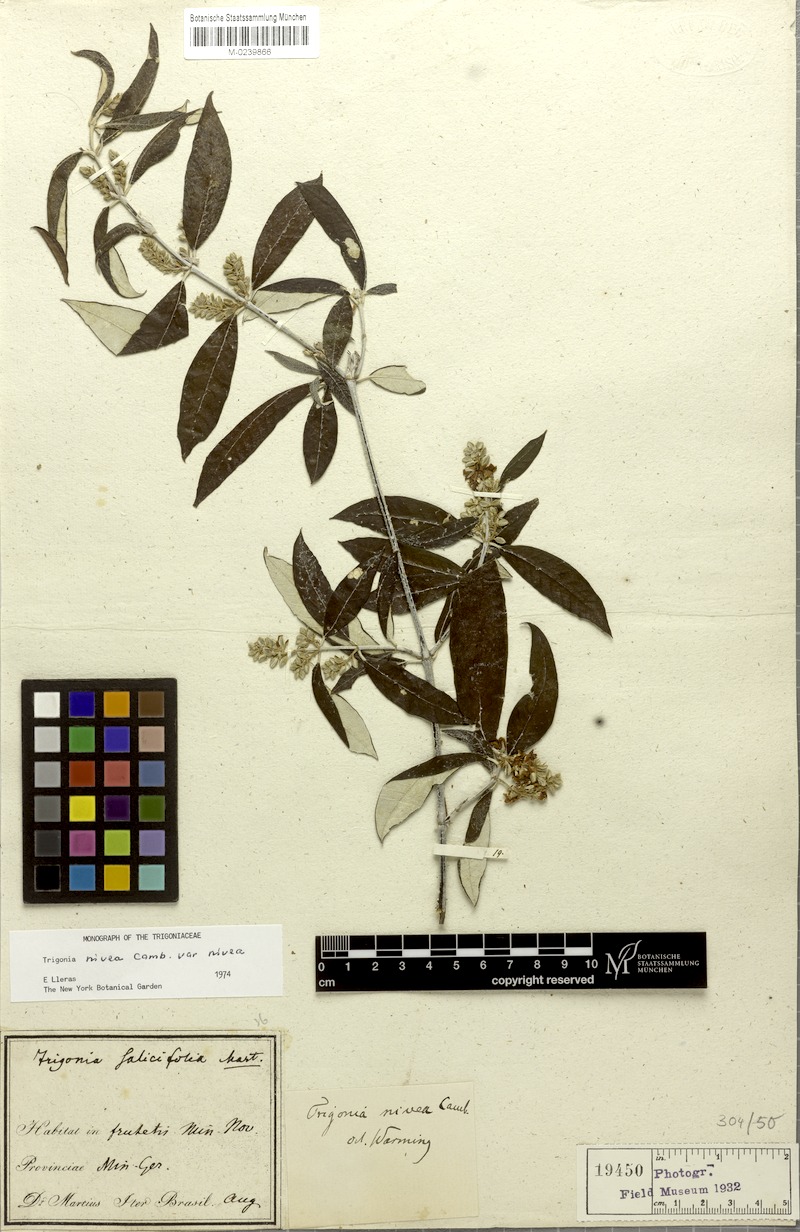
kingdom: Plantae
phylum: Tracheophyta
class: Magnoliopsida
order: Malpighiales
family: Trigoniaceae
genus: Trigonia
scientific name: Trigonia nivea
